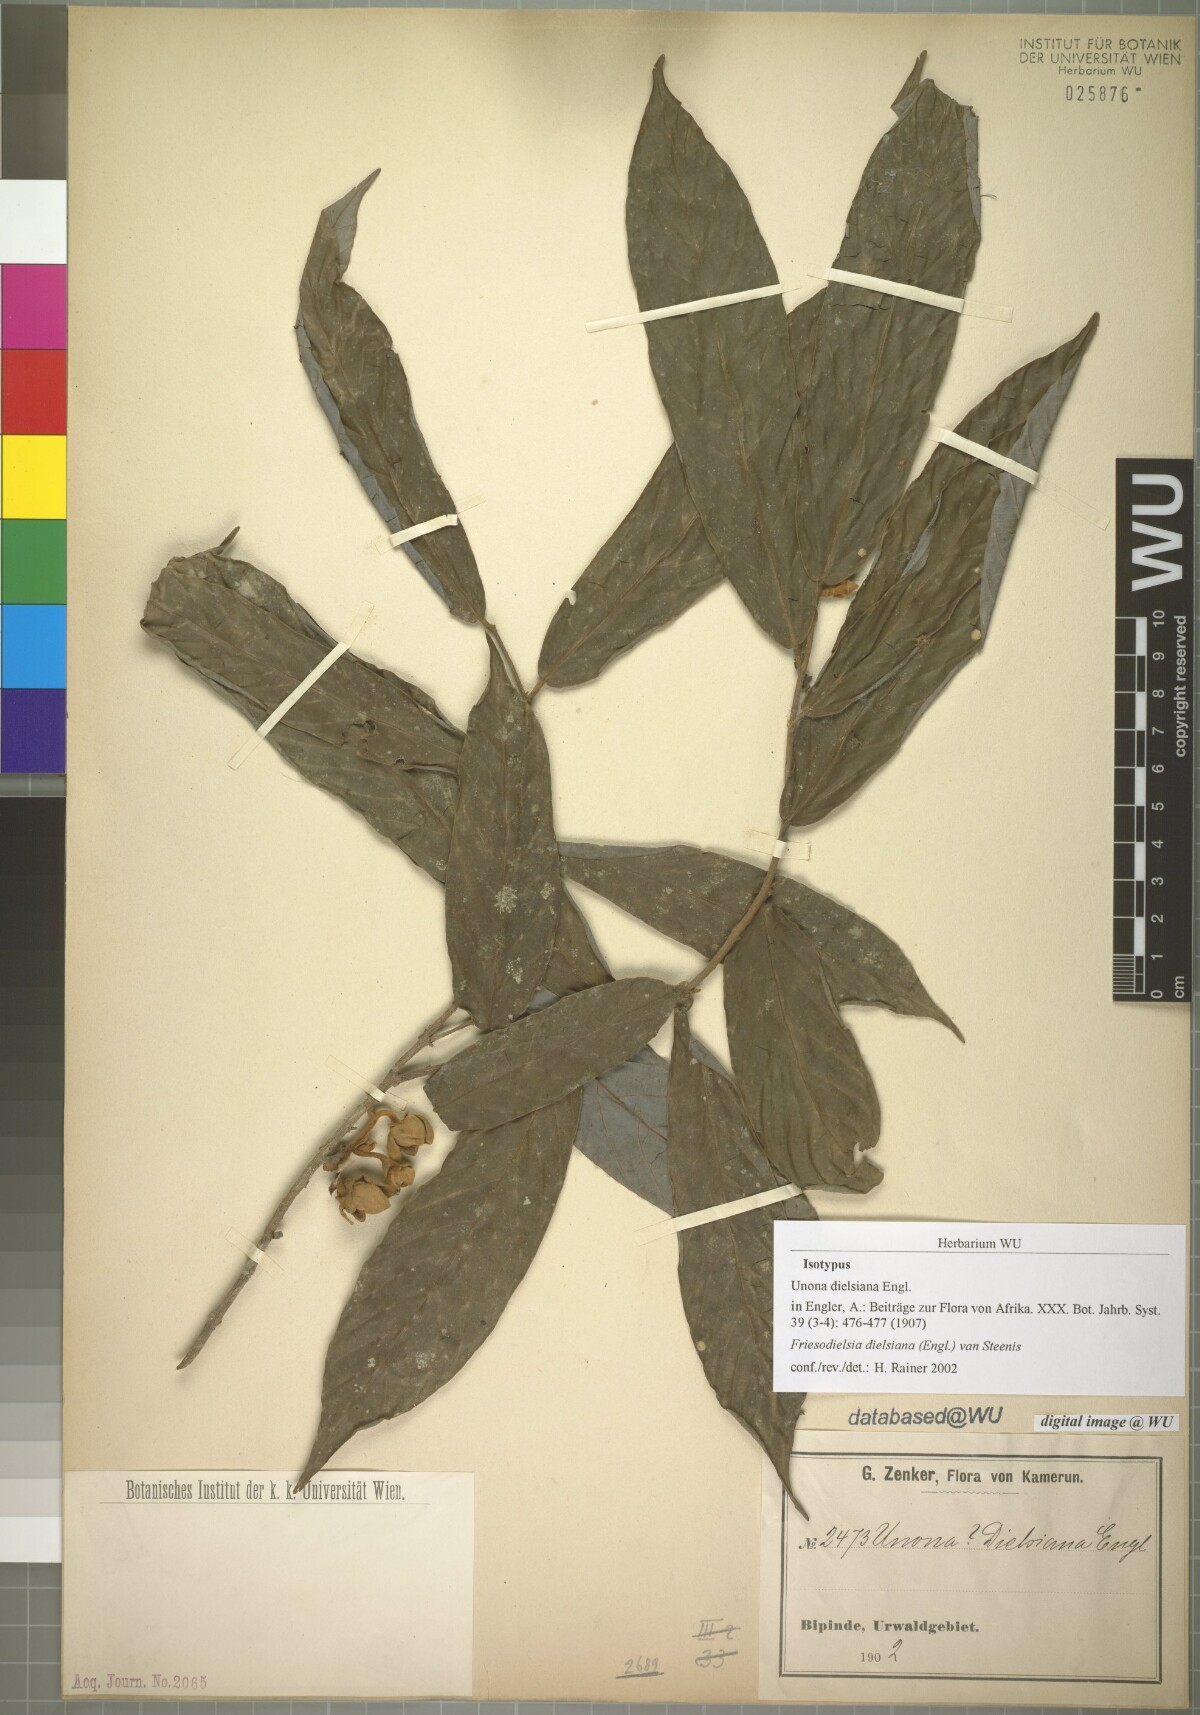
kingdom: Plantae
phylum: Tracheophyta
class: Magnoliopsida
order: Magnoliales
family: Annonaceae
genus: Friesodielsia
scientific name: Friesodielsia dielsiana
